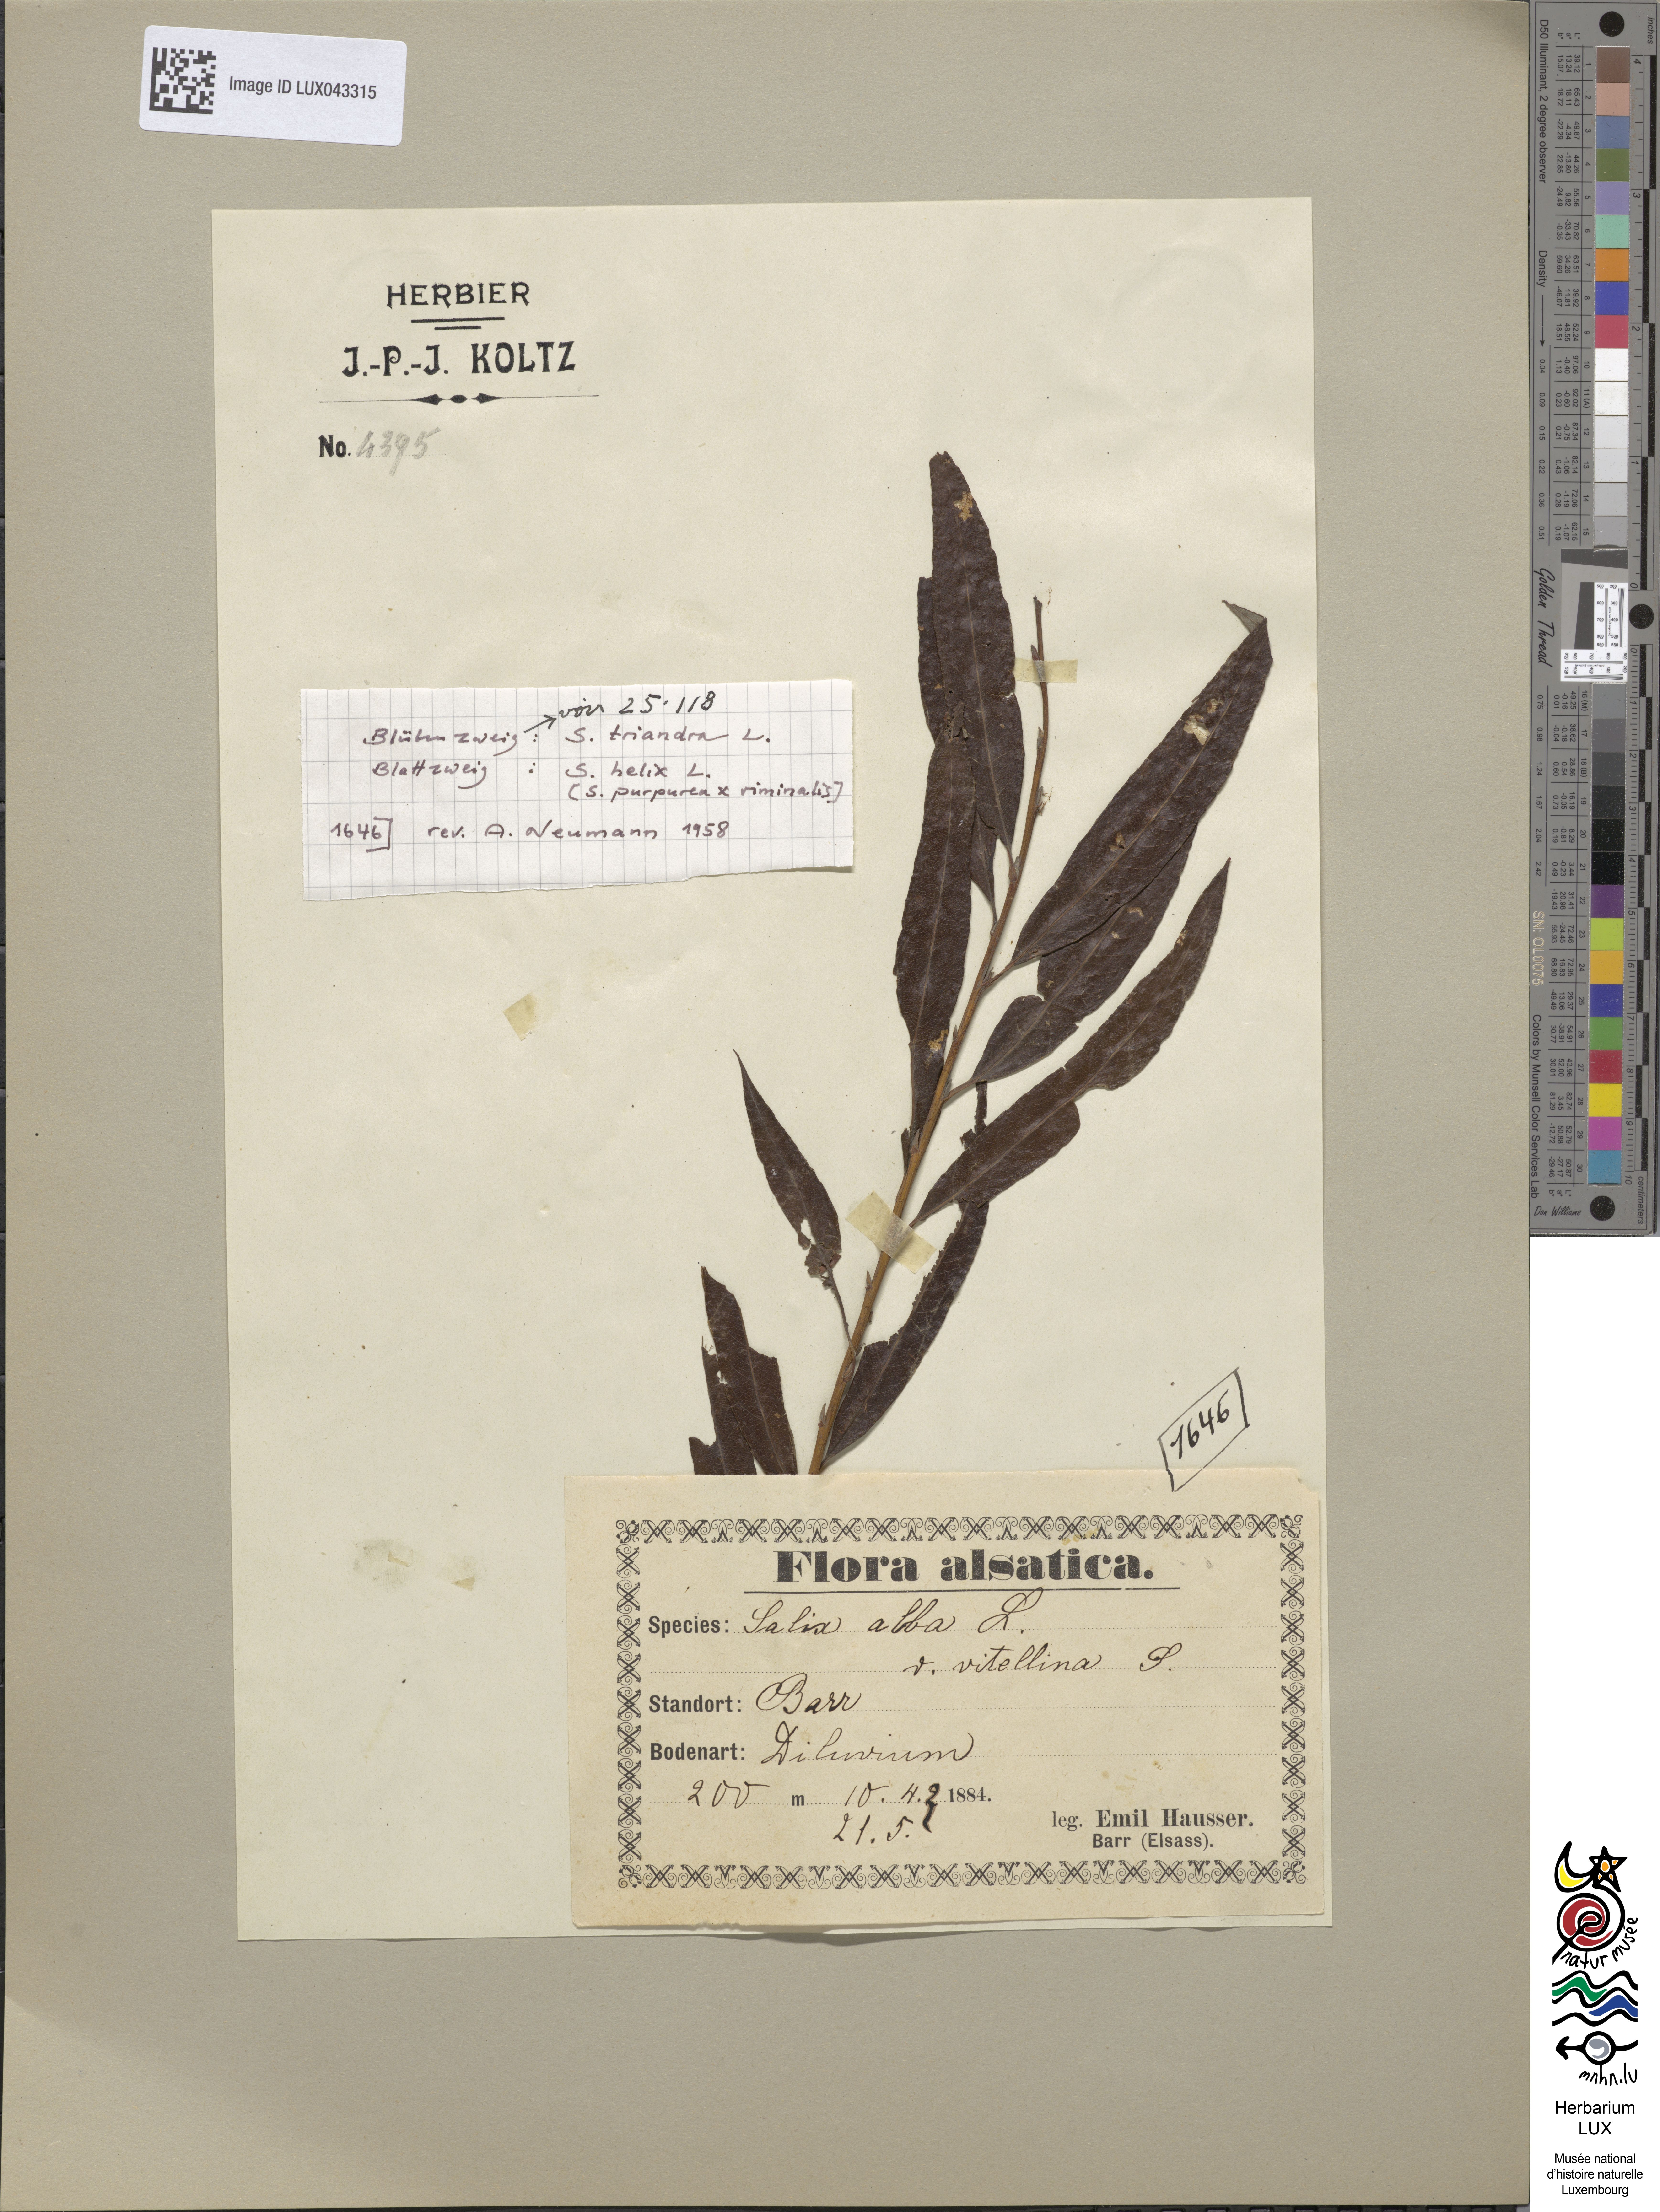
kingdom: Plantae
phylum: Tracheophyta
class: Magnoliopsida
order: Malpighiales
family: Salicaceae
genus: Salix
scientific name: Salix
